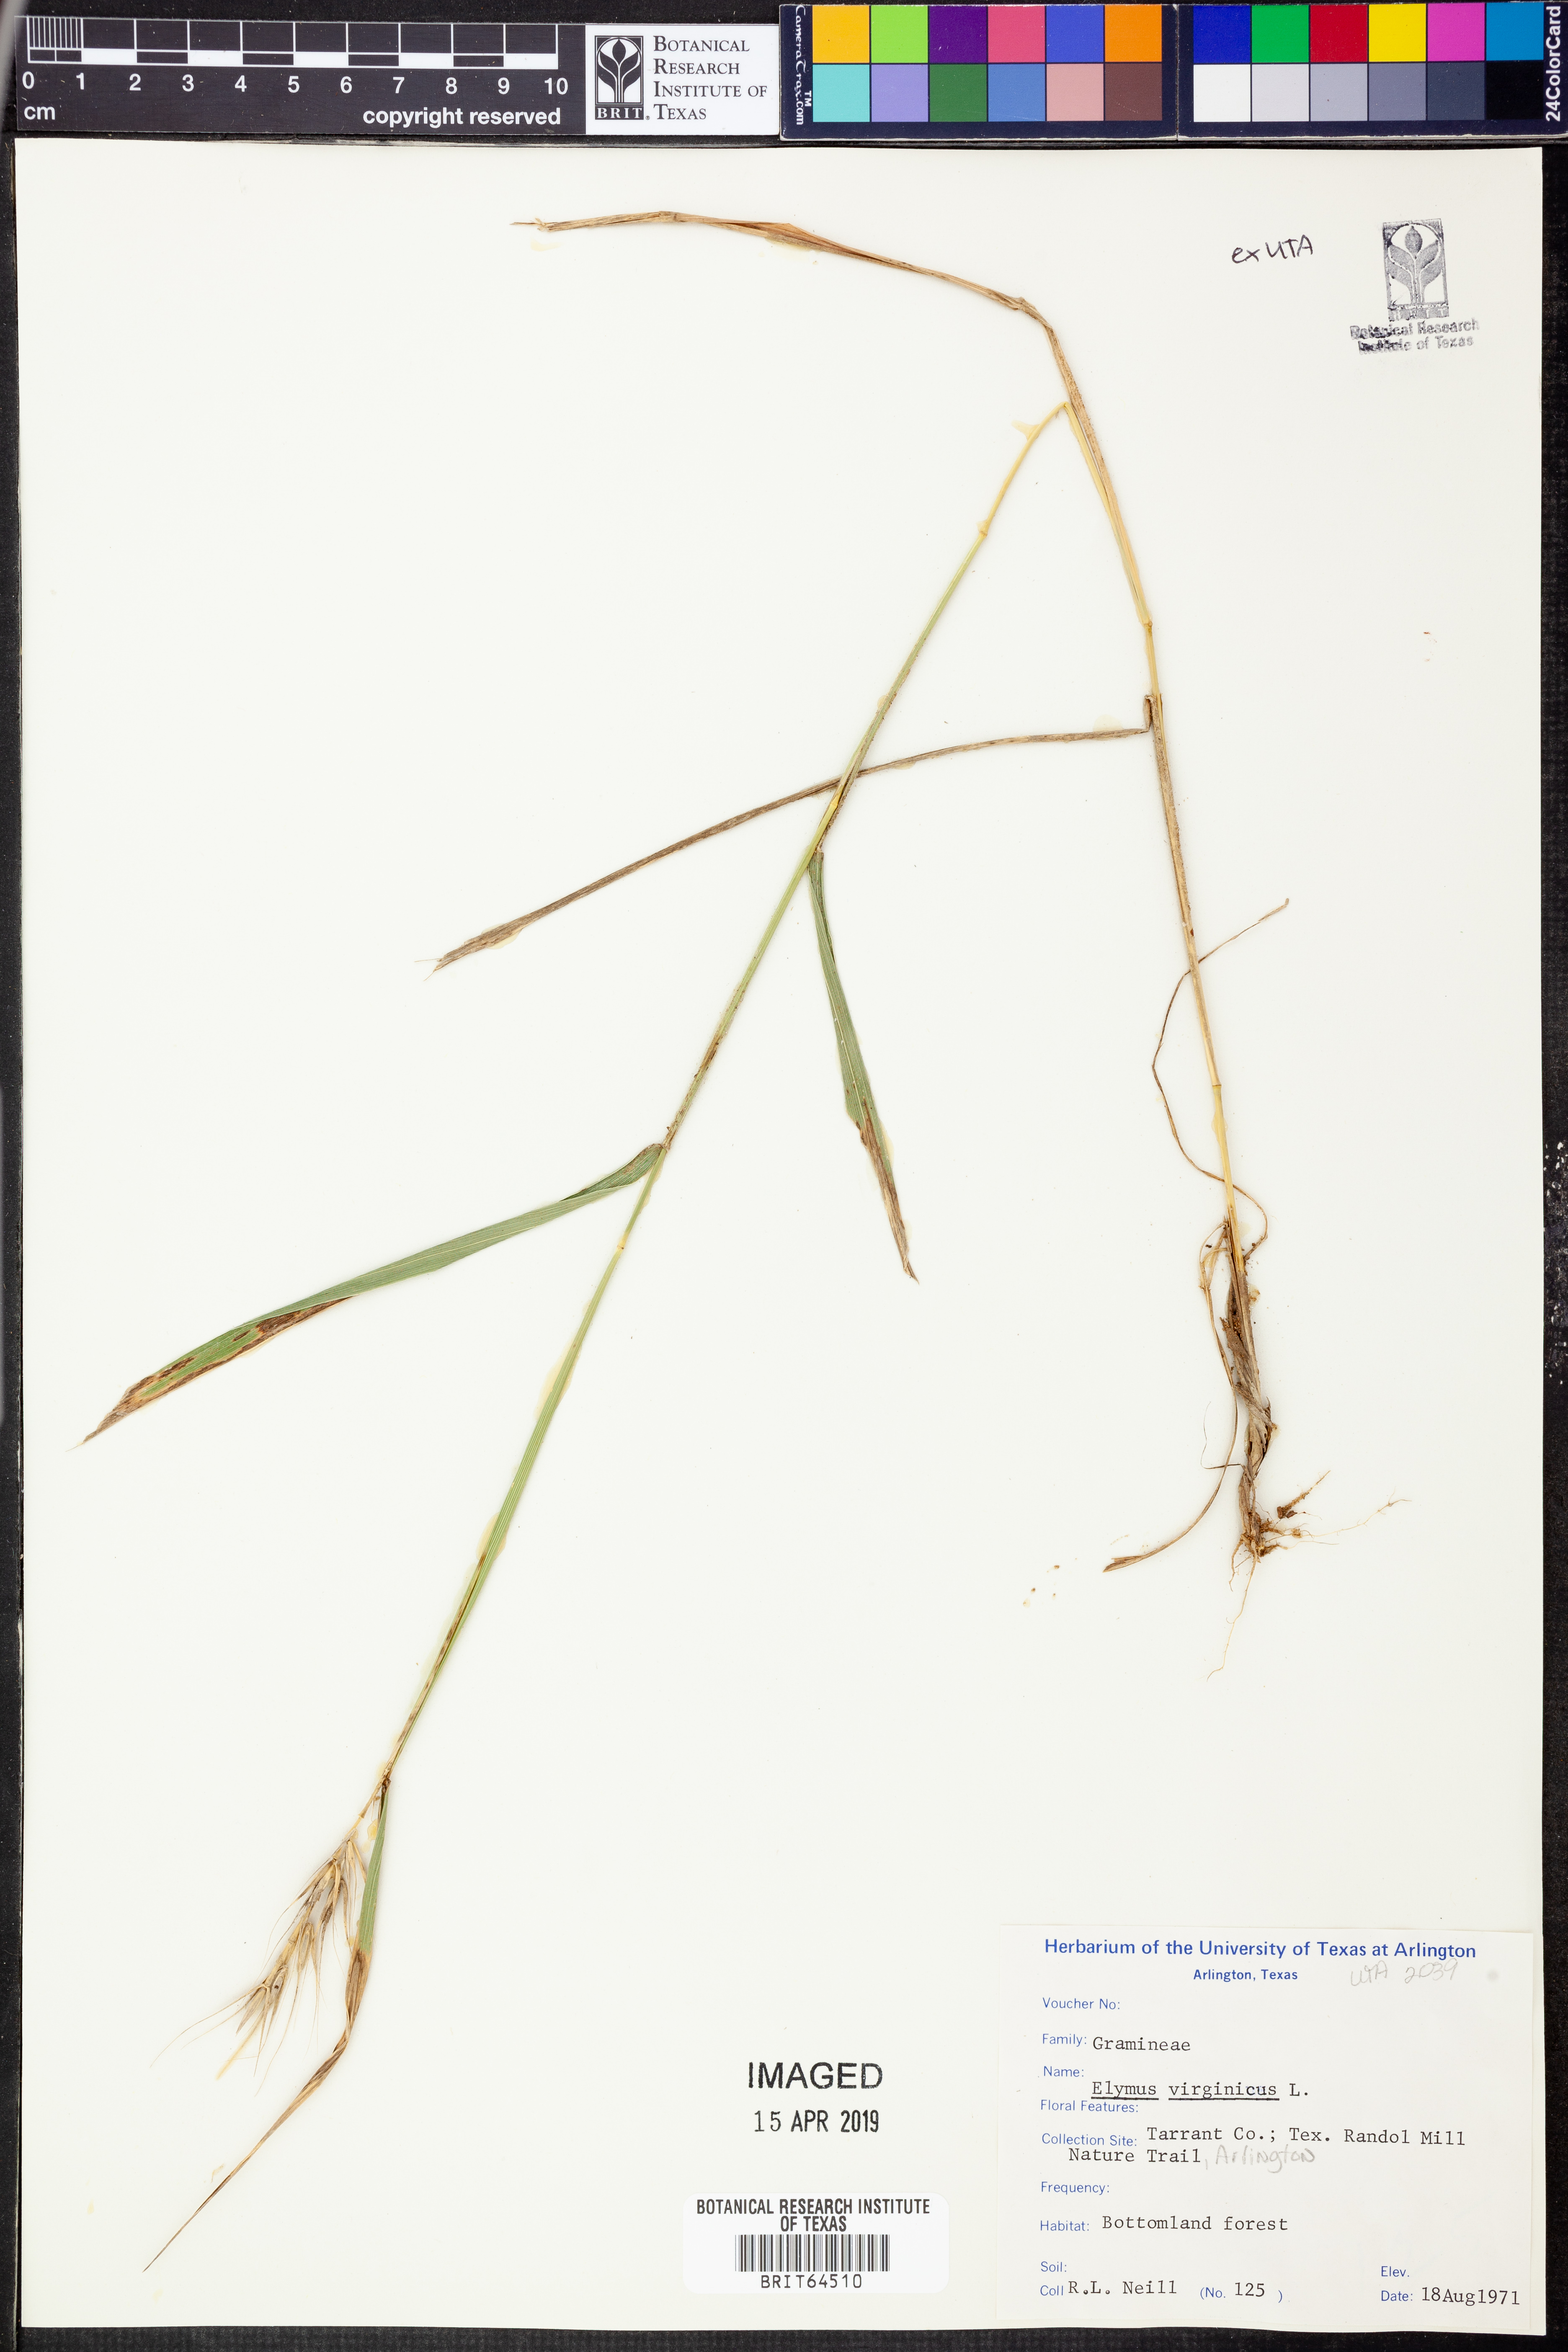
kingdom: Plantae
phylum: Tracheophyta
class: Liliopsida
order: Poales
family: Poaceae
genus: Elymus
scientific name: Elymus virginicus
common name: Common eastern wildrye
